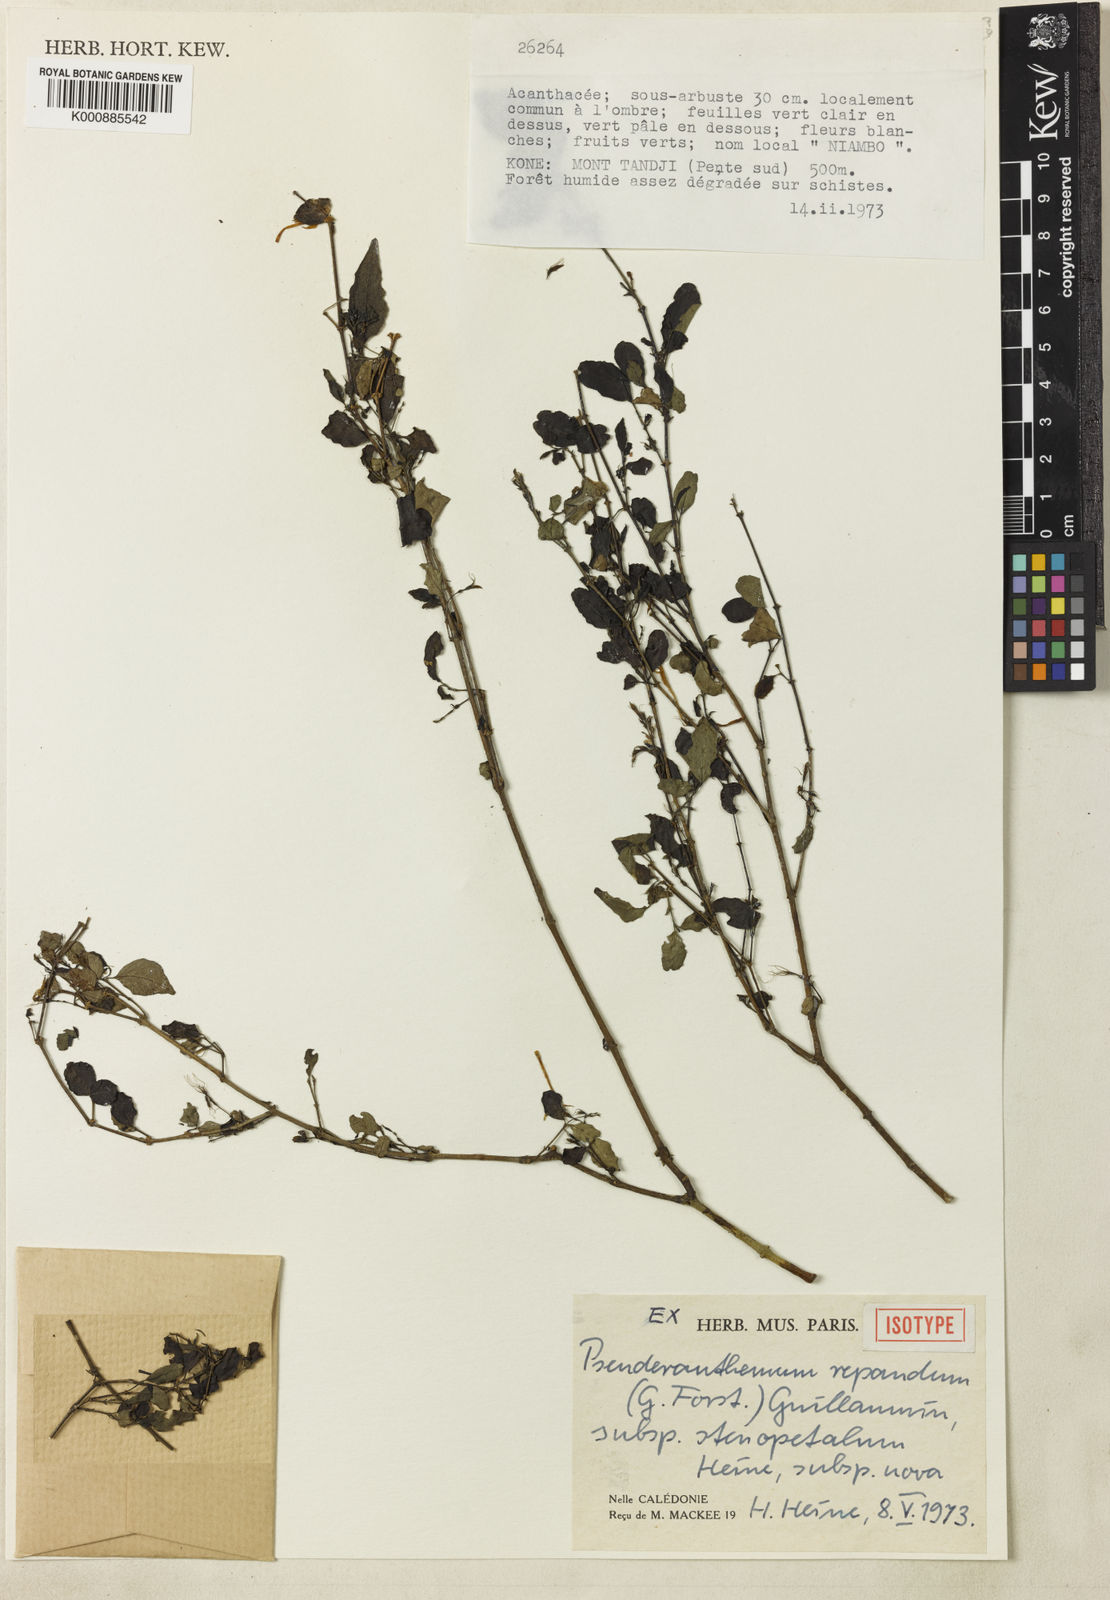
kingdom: Plantae
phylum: Tracheophyta
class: Magnoliopsida
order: Lamiales
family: Acanthaceae
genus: Pseuderanthemum
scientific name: Pseuderanthemum repandum
